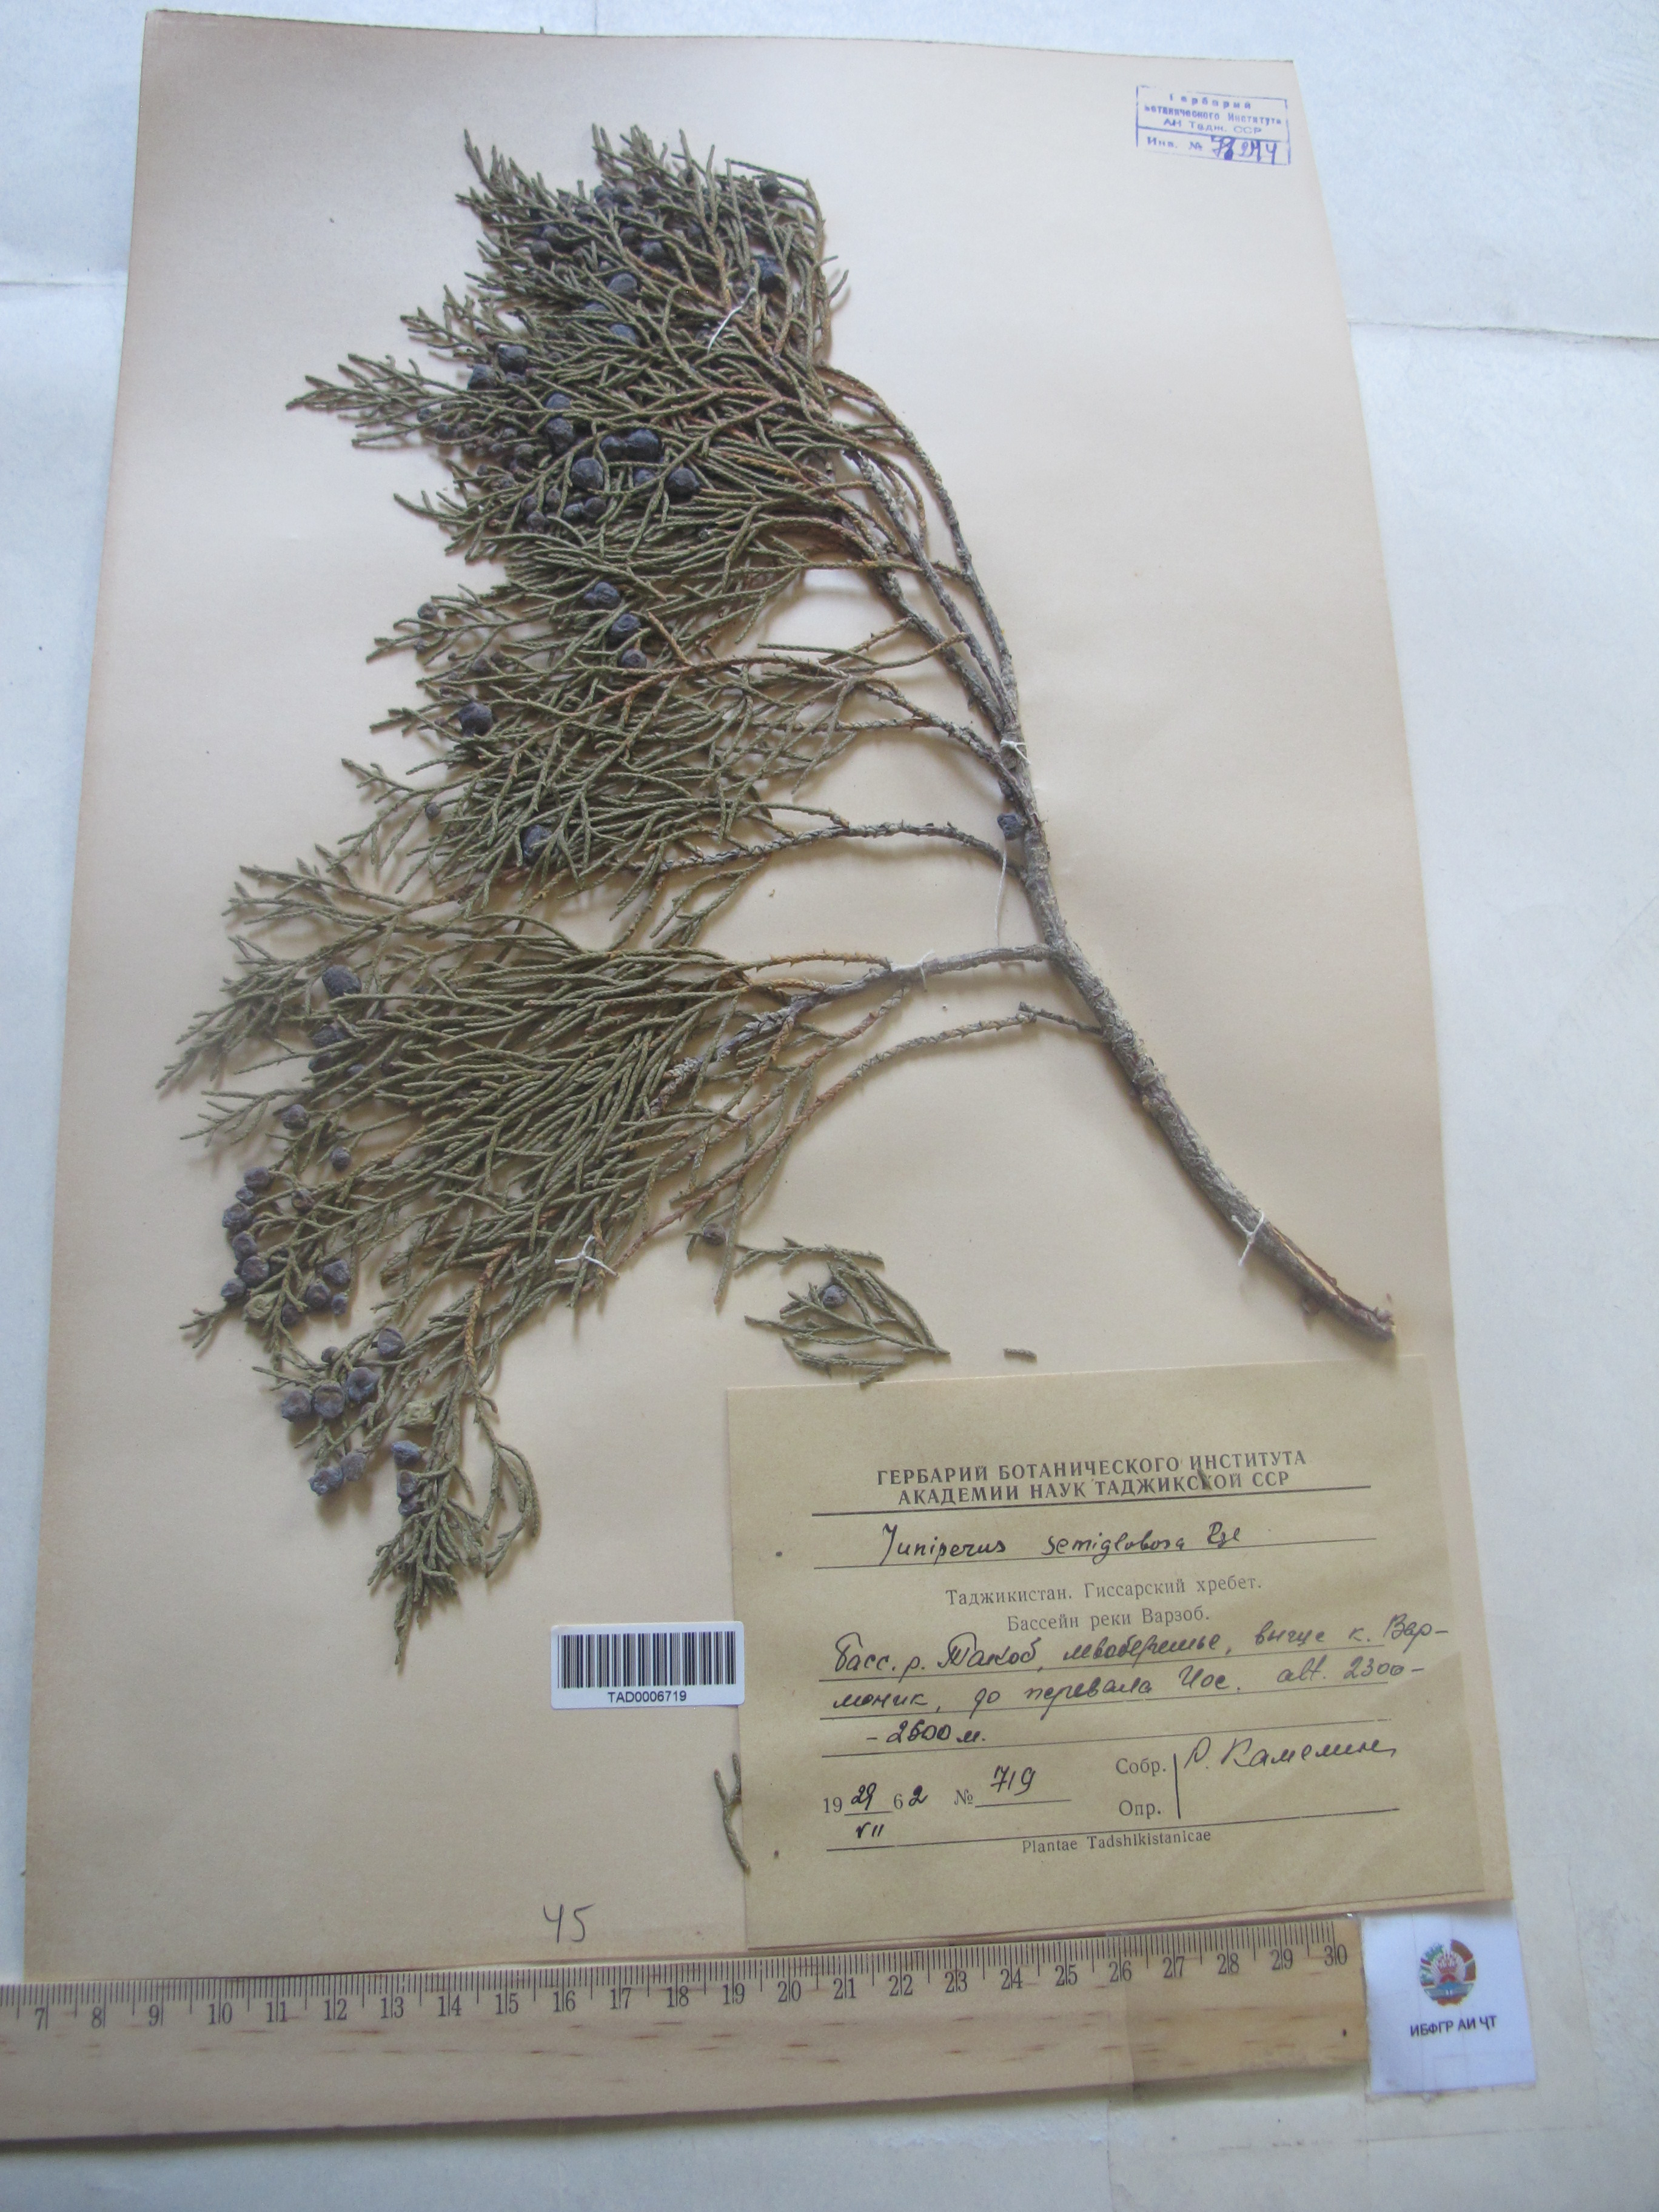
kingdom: Plantae
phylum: Tracheophyta
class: Pinopsida
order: Pinales
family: Cupressaceae
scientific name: Cupressaceae
